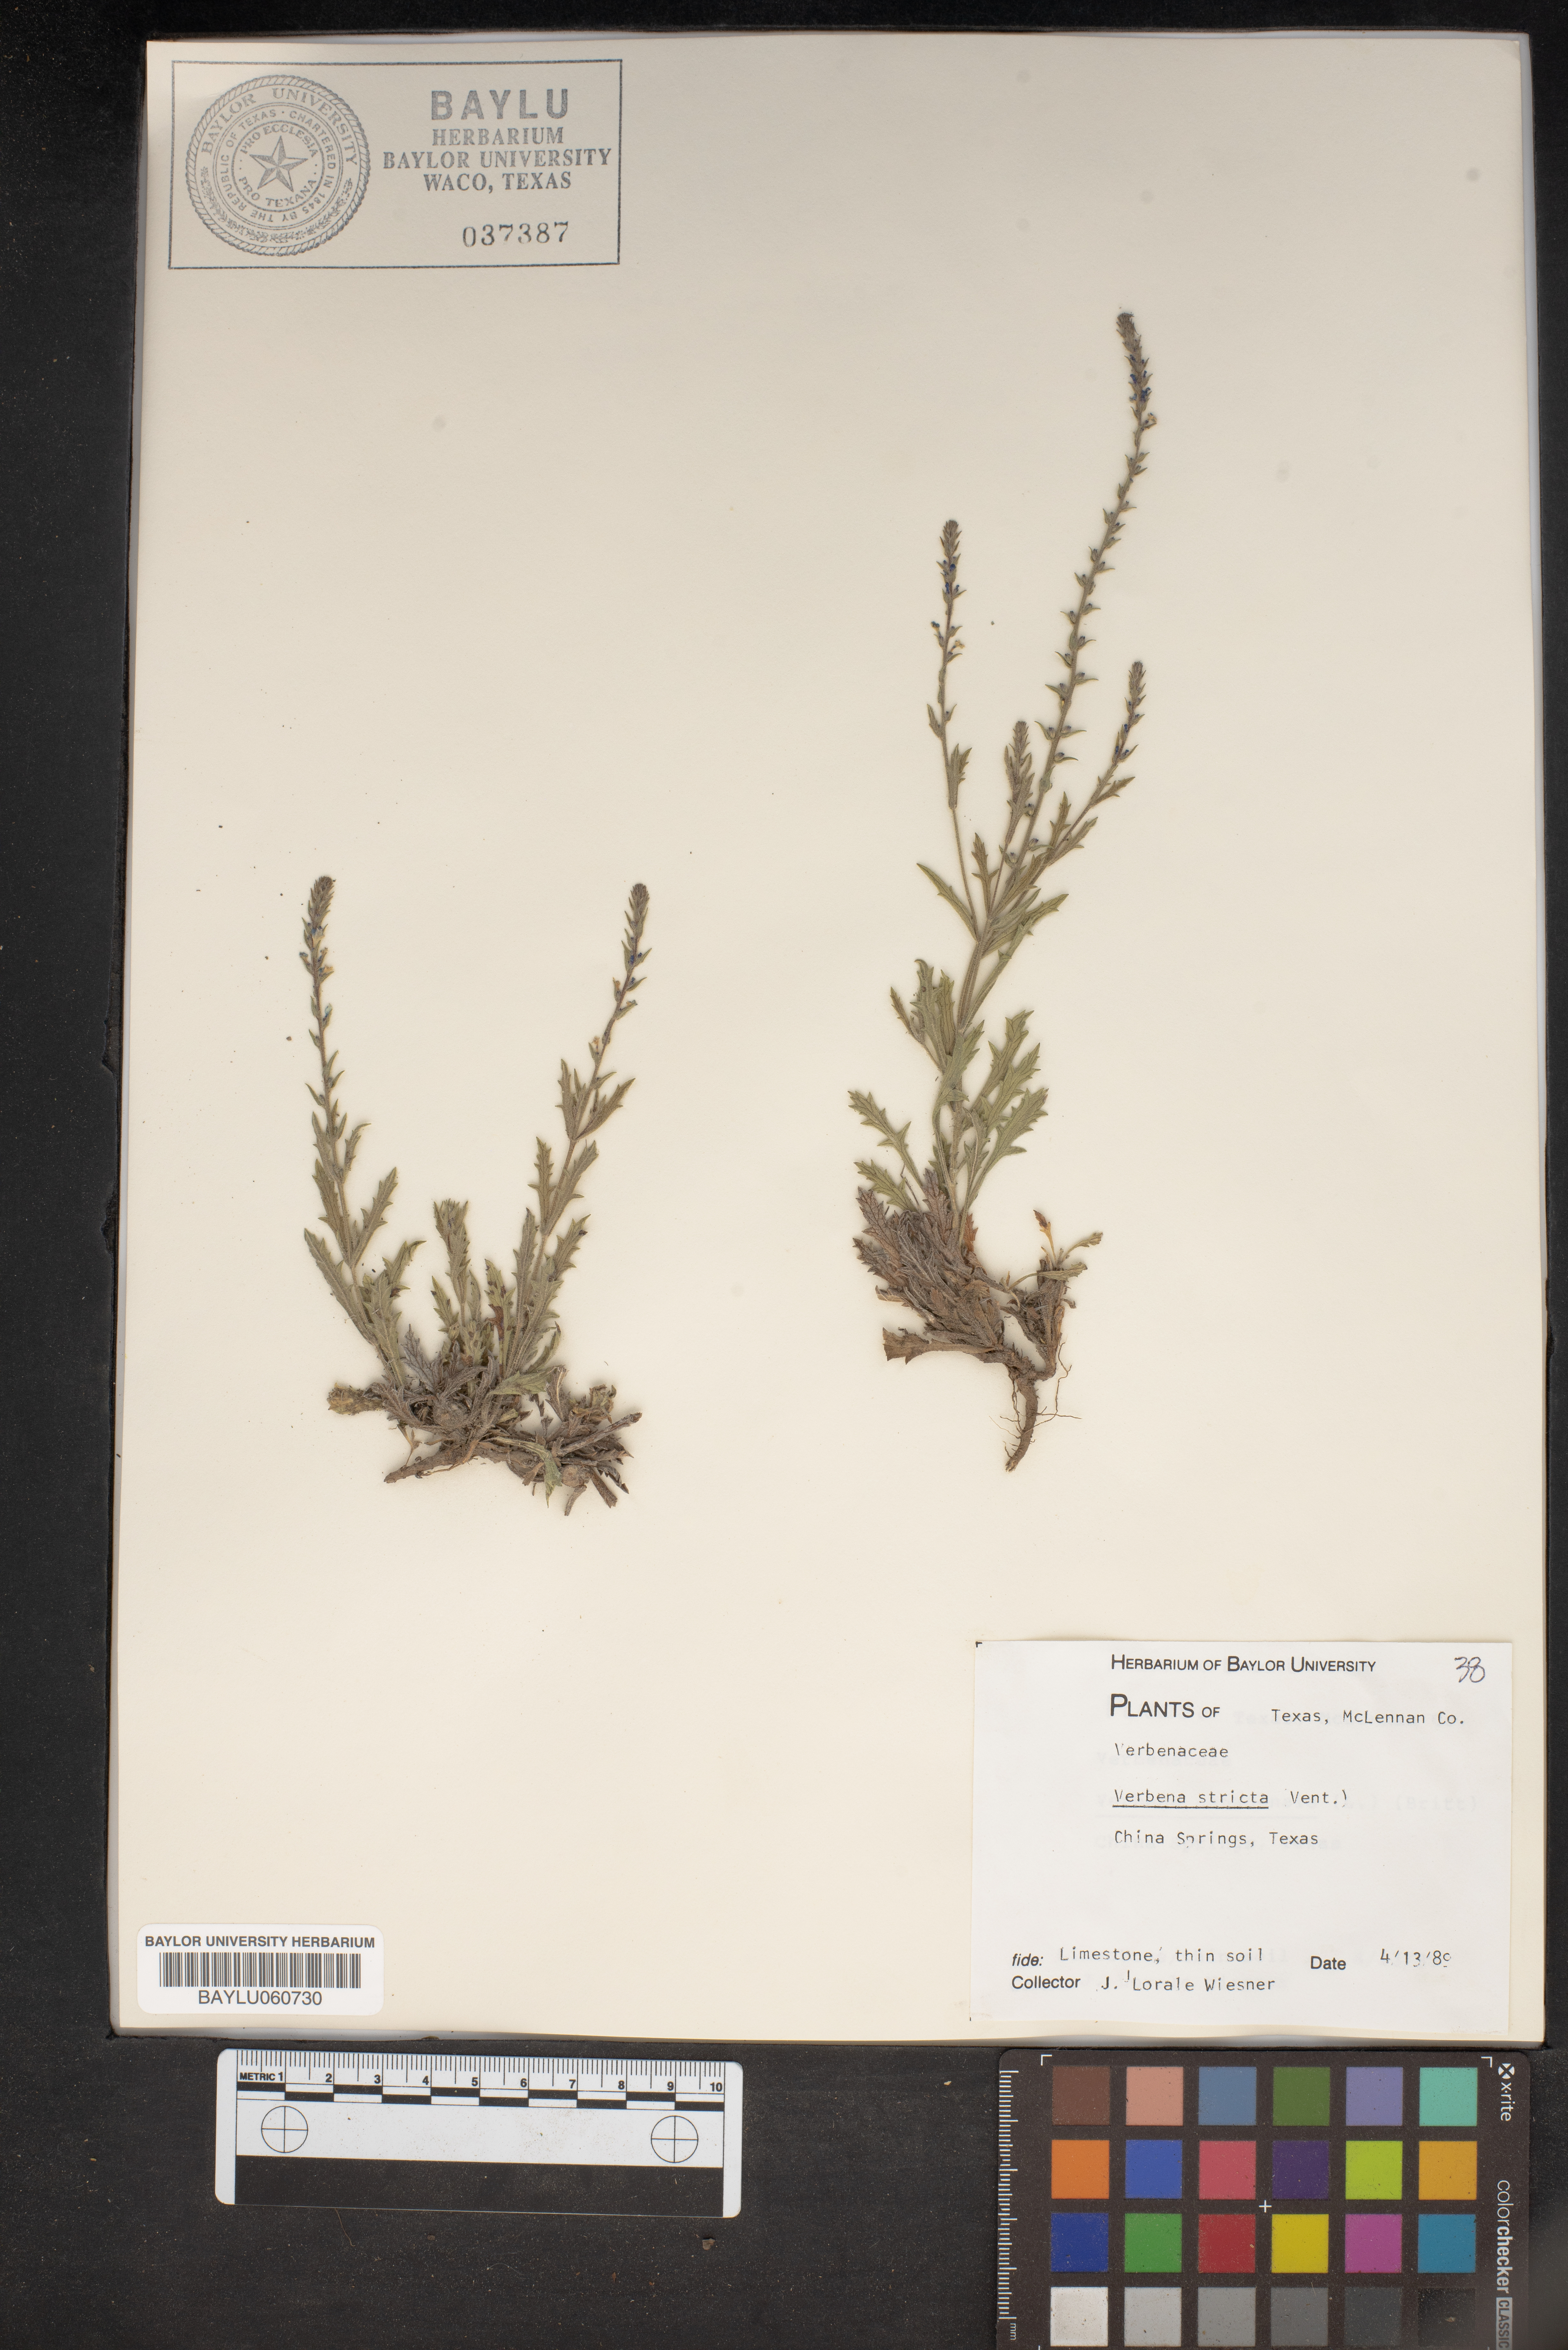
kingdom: Plantae
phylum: Tracheophyta
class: Magnoliopsida
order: Lamiales
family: Verbenaceae
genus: Verbena
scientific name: Verbena stricta
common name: Hoary vervain
